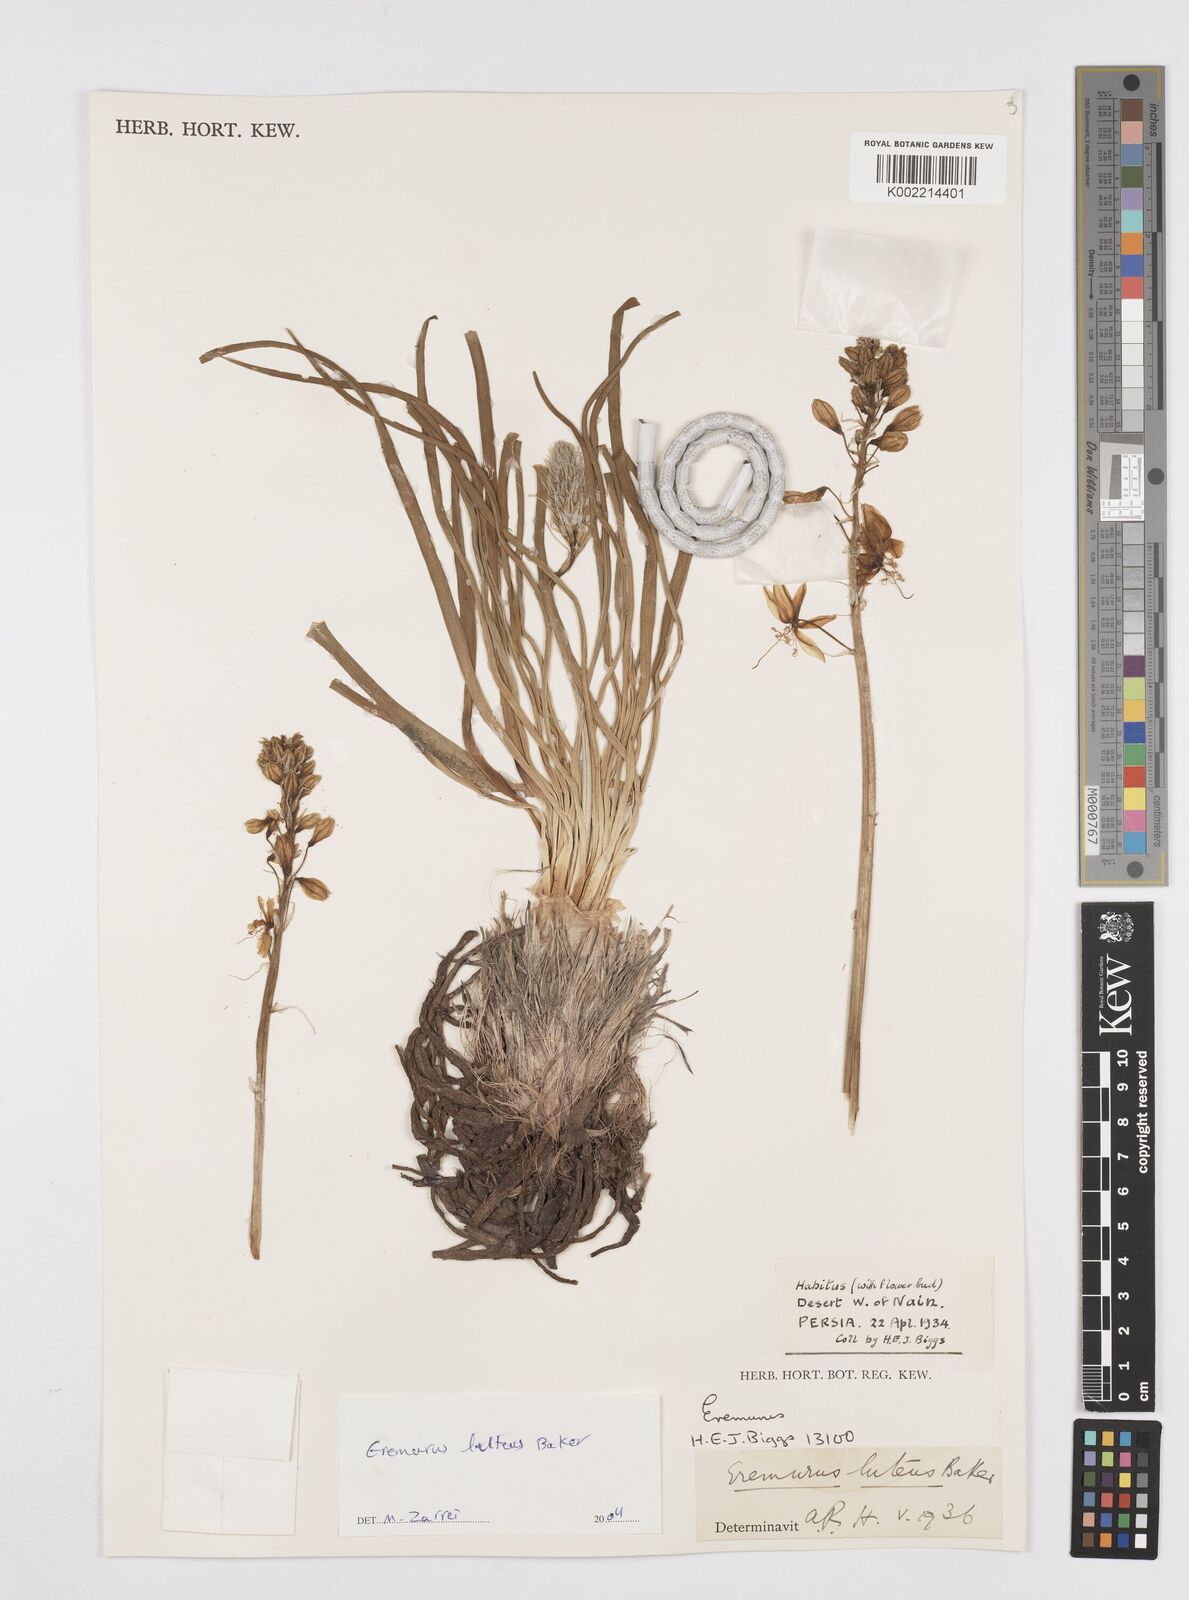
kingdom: Plantae
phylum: Tracheophyta
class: Liliopsida
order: Asparagales
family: Asphodelaceae
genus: Eremurus
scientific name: Eremurus luteus
